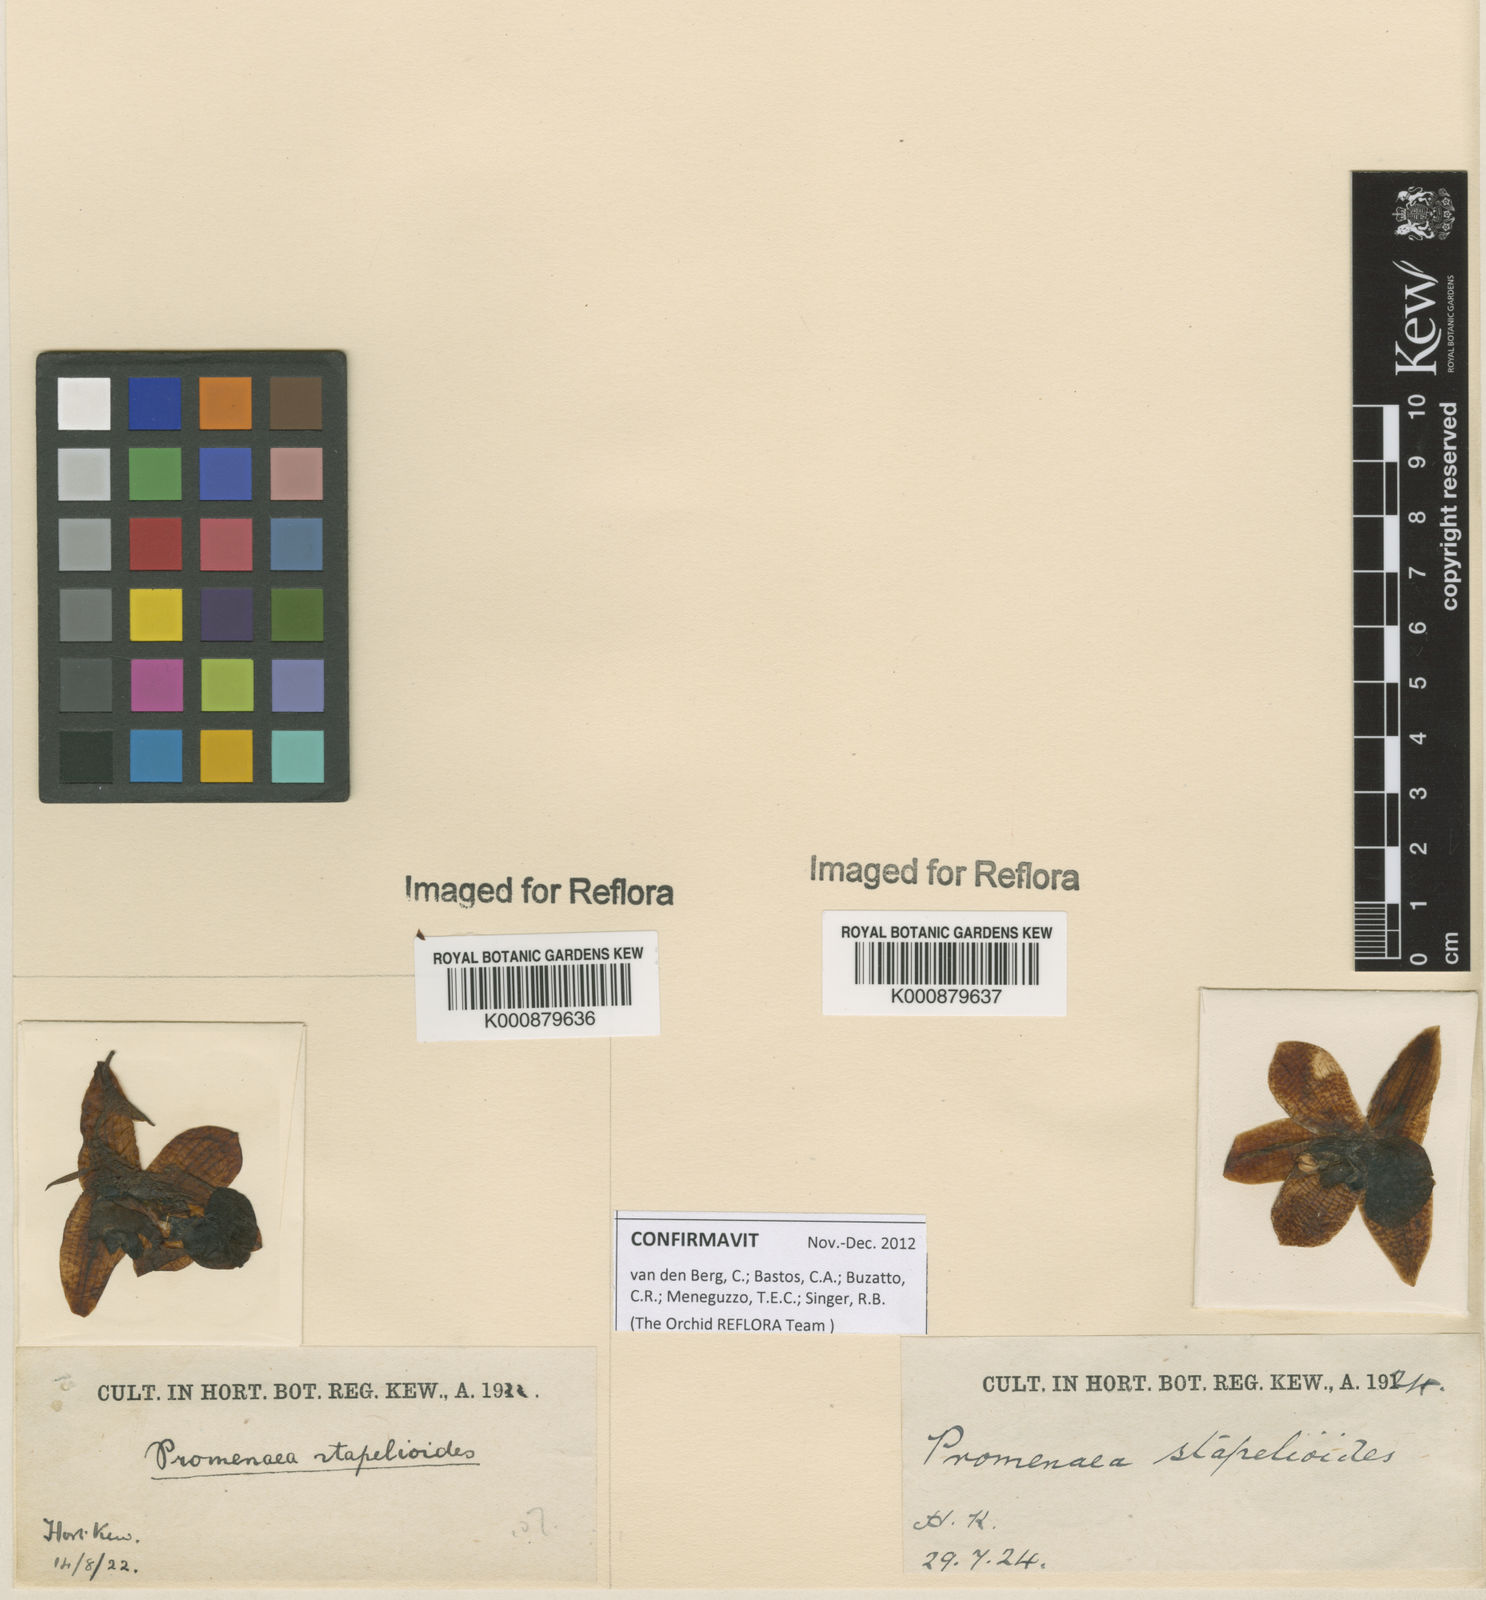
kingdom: Plantae
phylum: Tracheophyta
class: Liliopsida
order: Asparagales
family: Orchidaceae
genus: Promenaea
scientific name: Promenaea stapelioides
